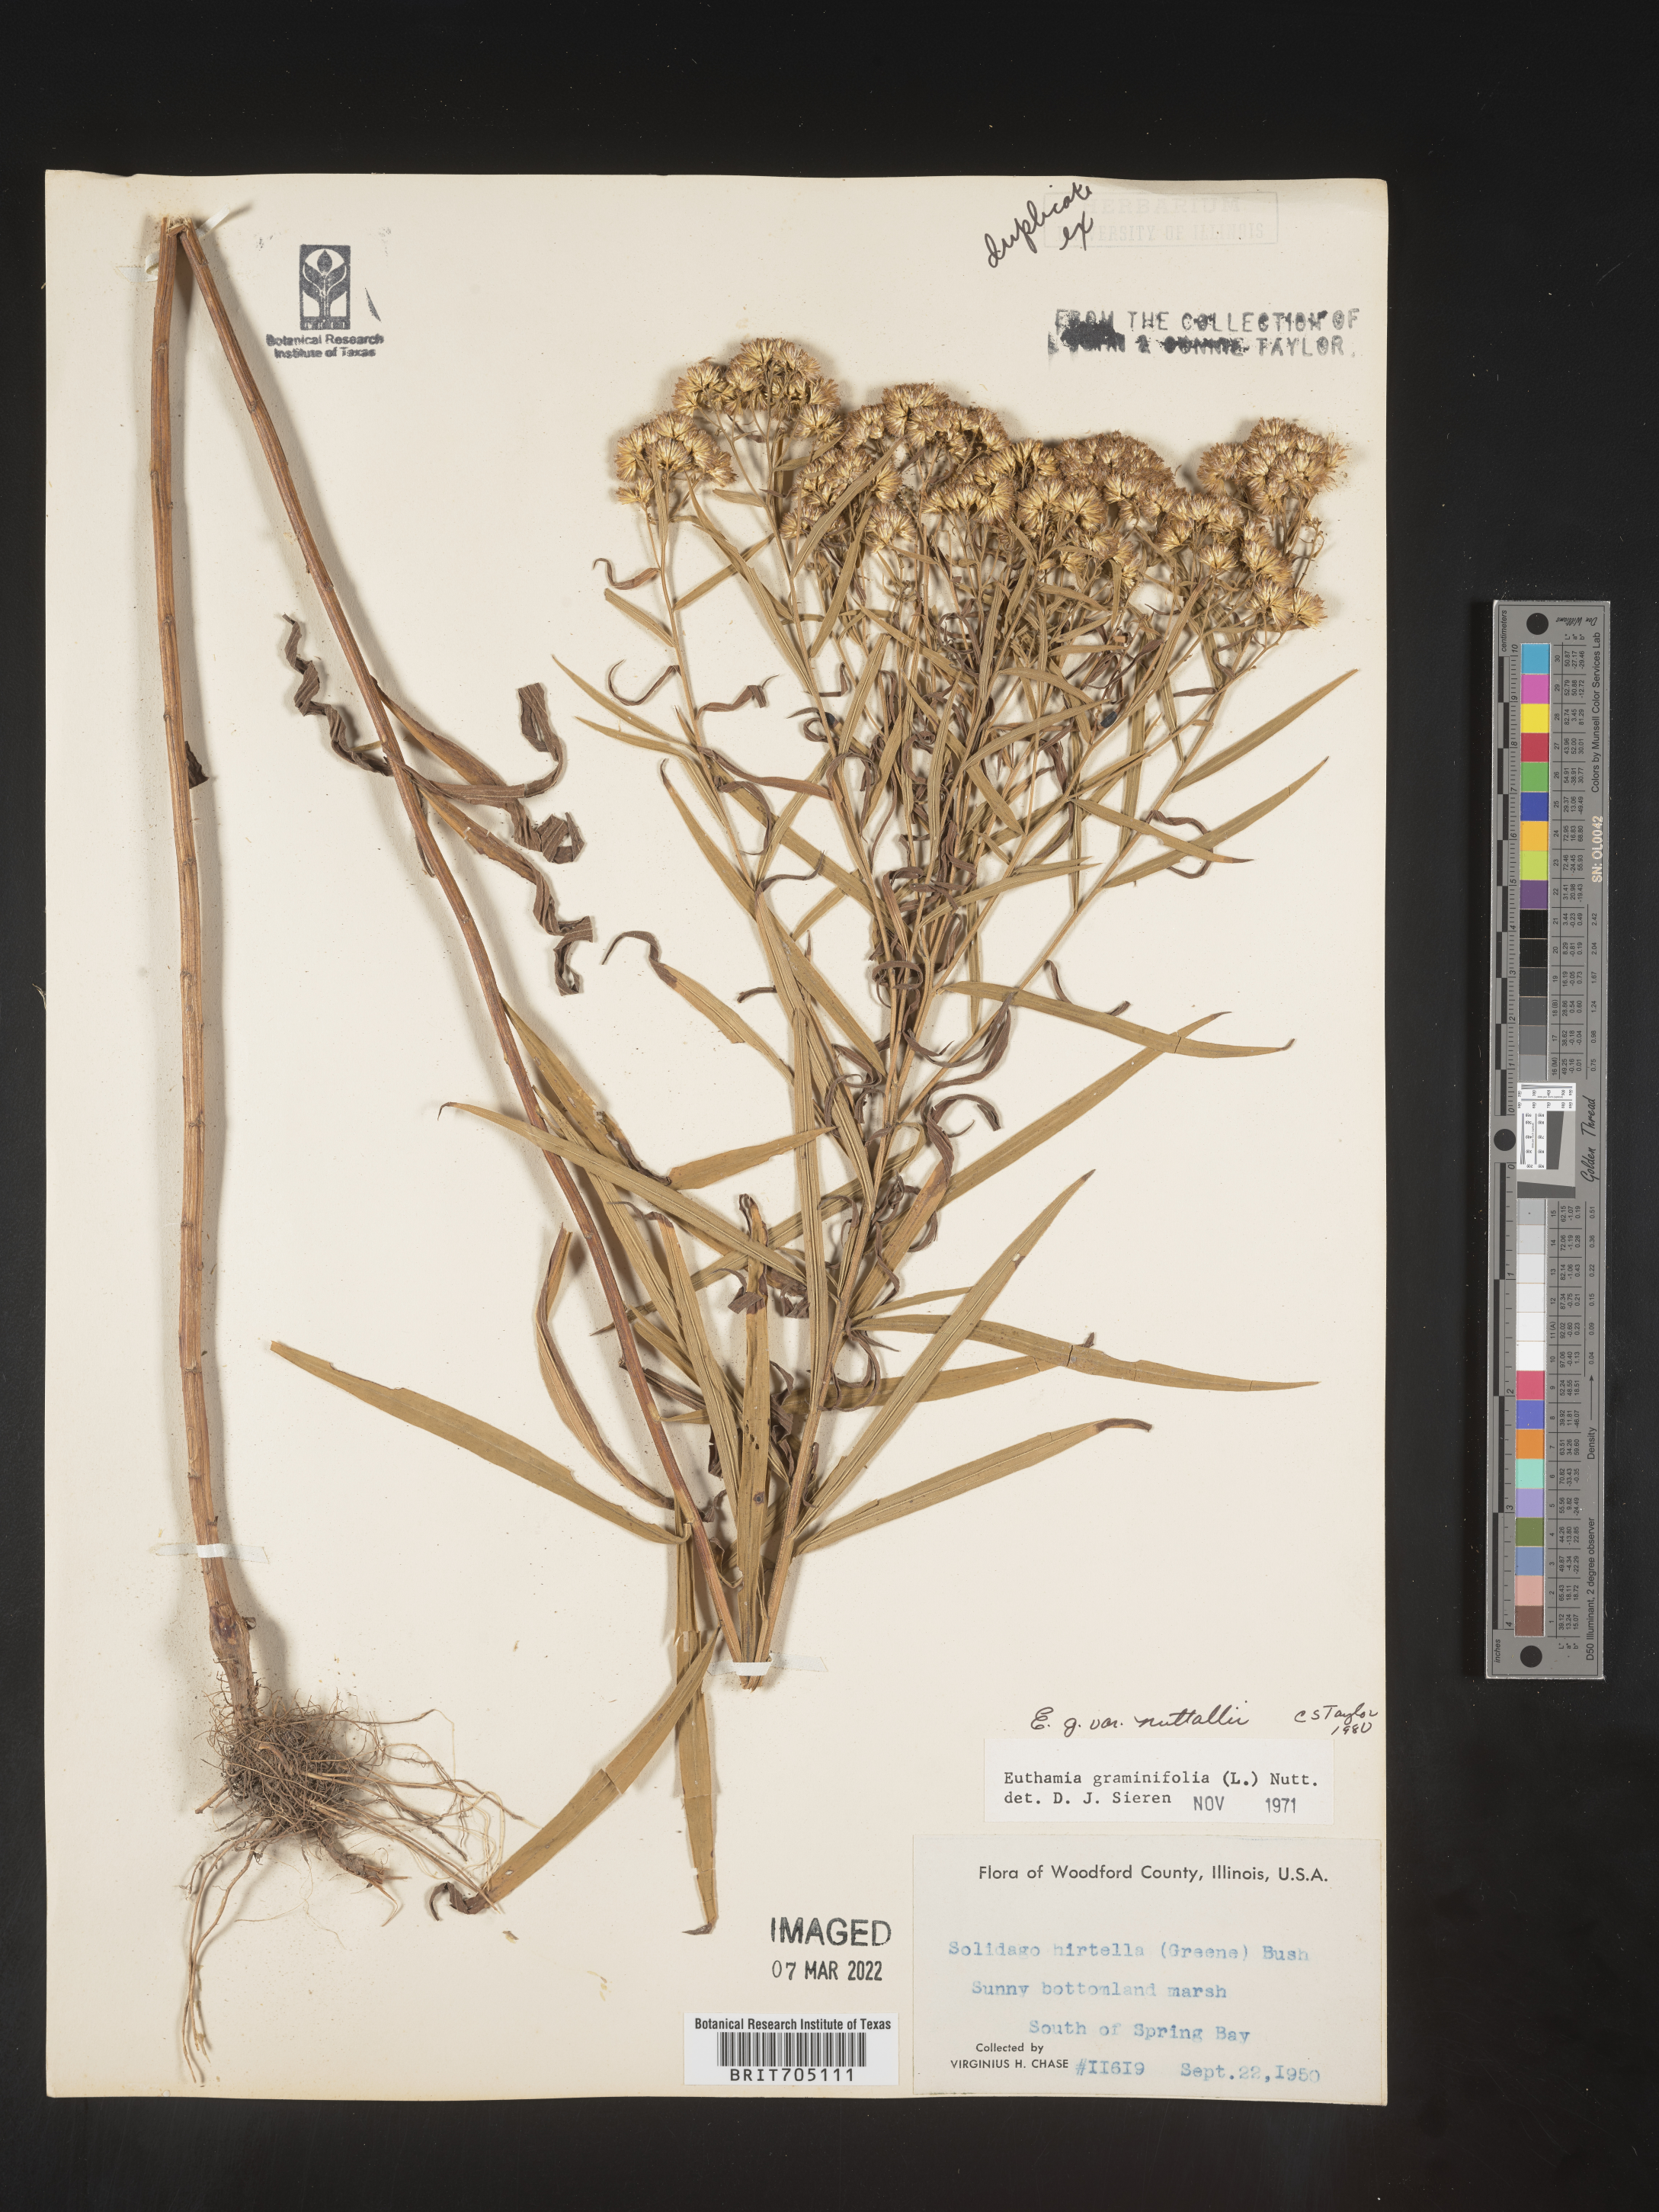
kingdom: Plantae
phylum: Tracheophyta
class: Magnoliopsida
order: Asterales
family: Asteraceae
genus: Euthamia
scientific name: Euthamia graminifolia
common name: Common goldentop
